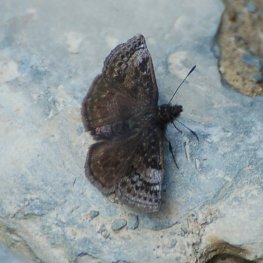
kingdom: Animalia
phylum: Arthropoda
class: Insecta
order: Lepidoptera
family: Hesperiidae
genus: Erynnis
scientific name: Erynnis icelus
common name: Dreamy Duskywing
